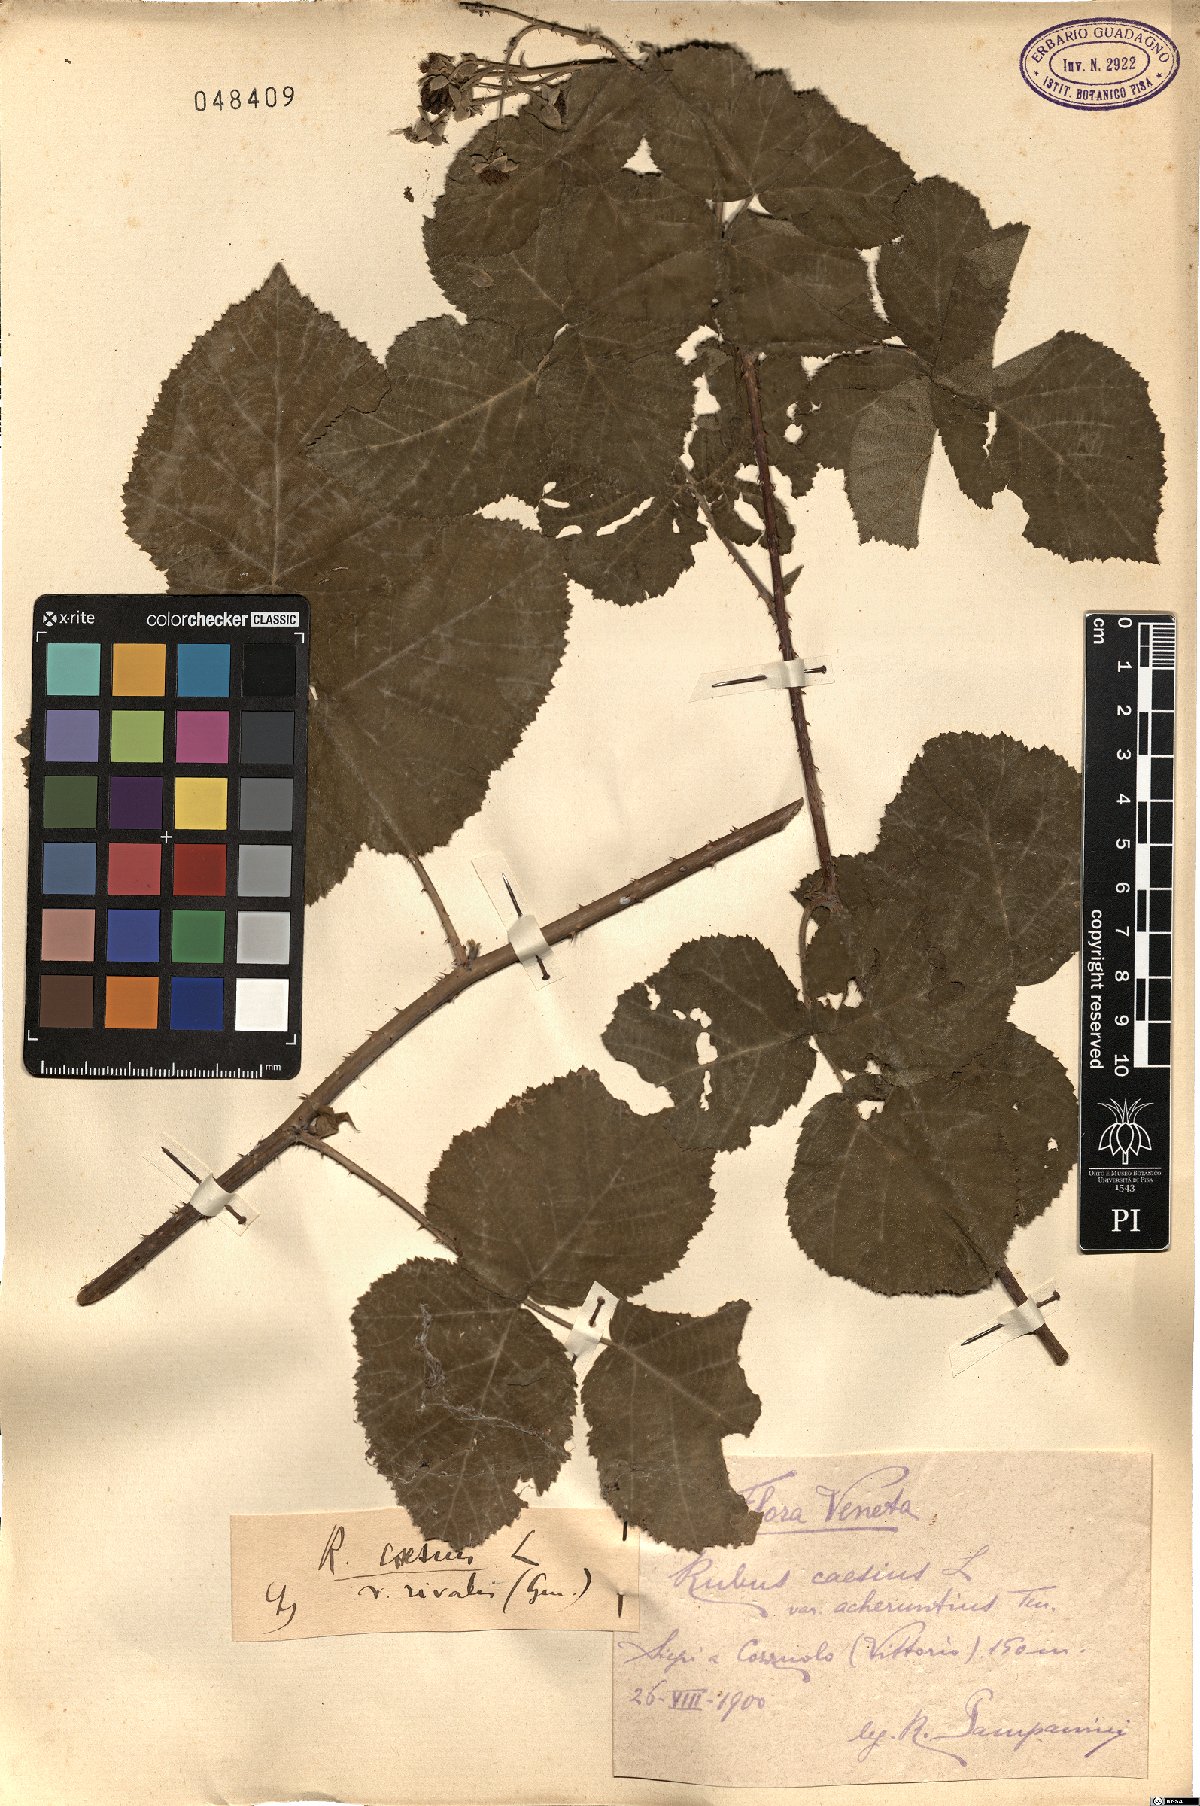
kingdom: Plantae
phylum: Tracheophyta
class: Magnoliopsida
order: Rosales
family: Rosaceae
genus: Rubus
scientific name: Rubus caesius
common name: Dewberry
